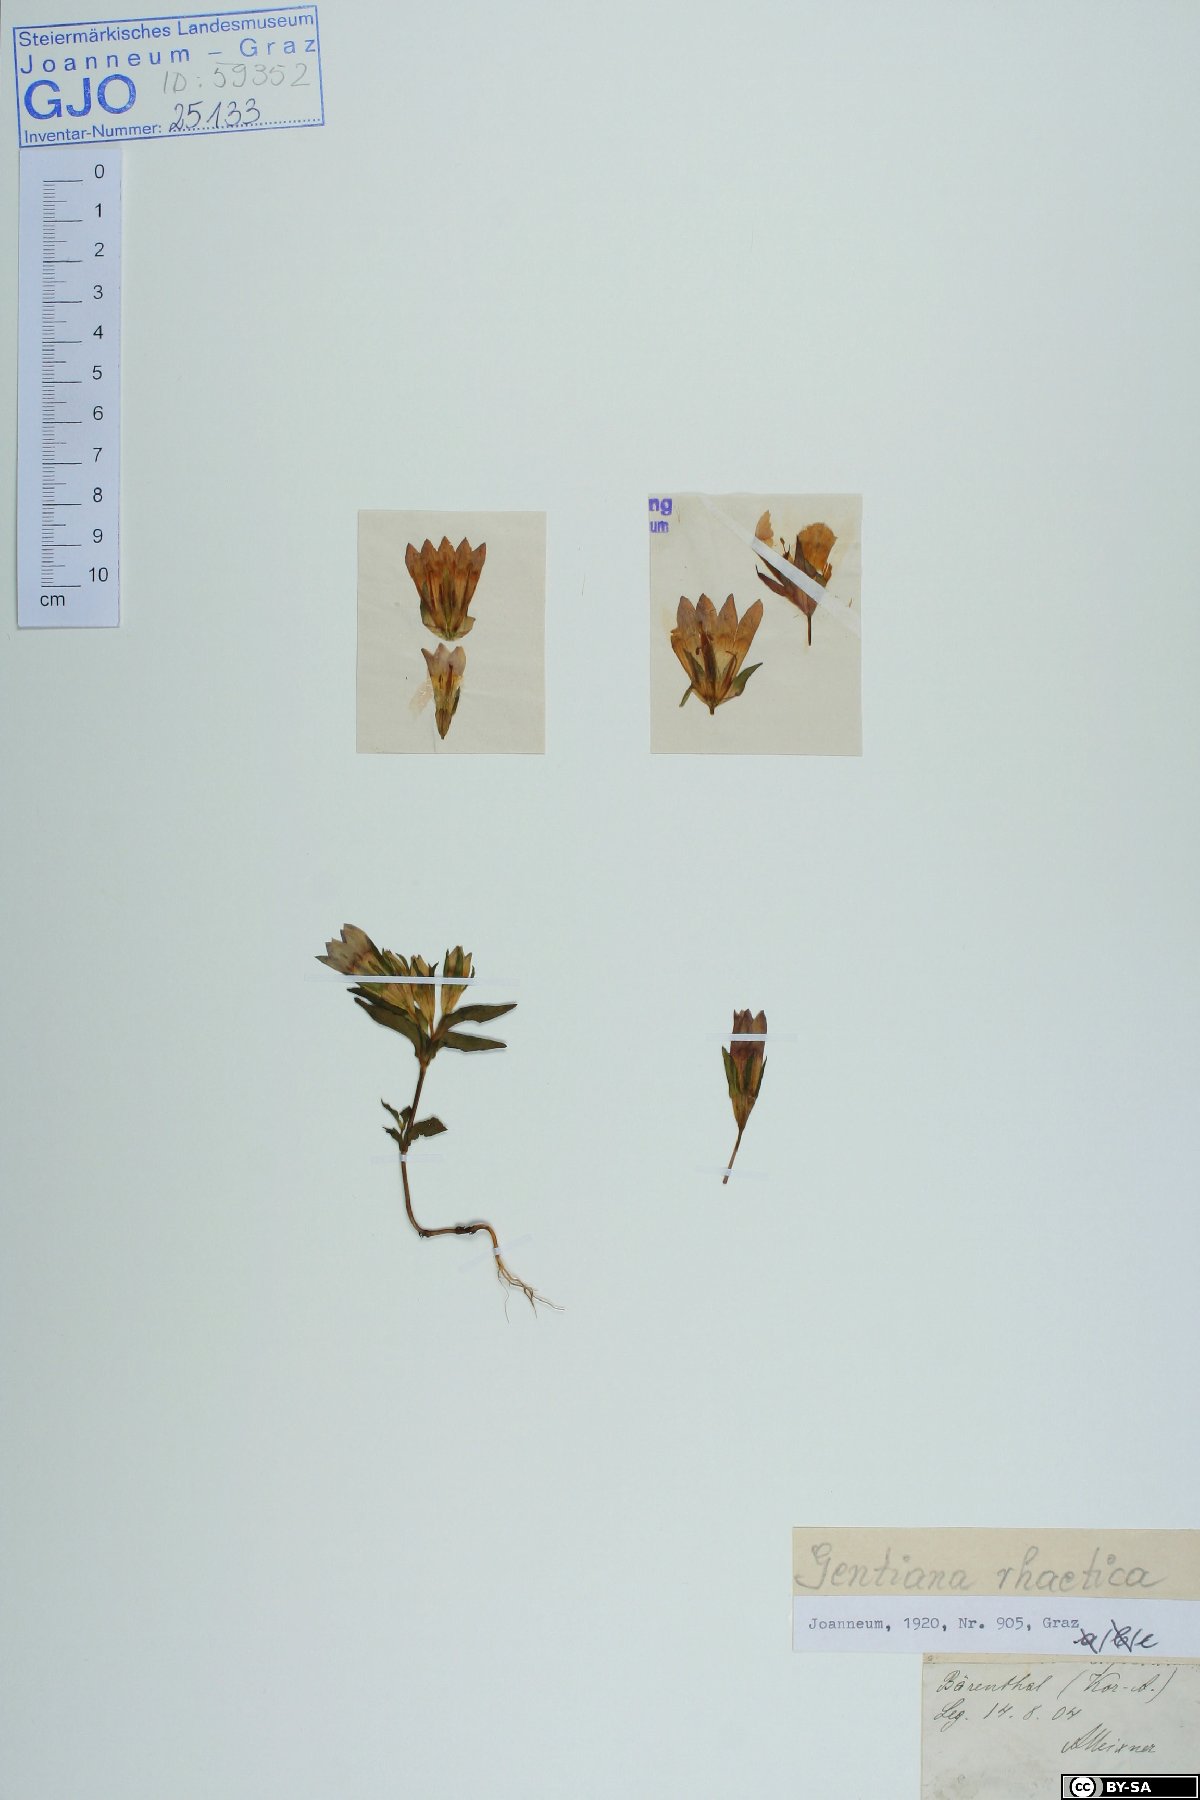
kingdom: Plantae
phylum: Tracheophyta
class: Magnoliopsida
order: Gentianales
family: Gentianaceae
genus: Gentianella
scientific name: Gentianella rhaetica
